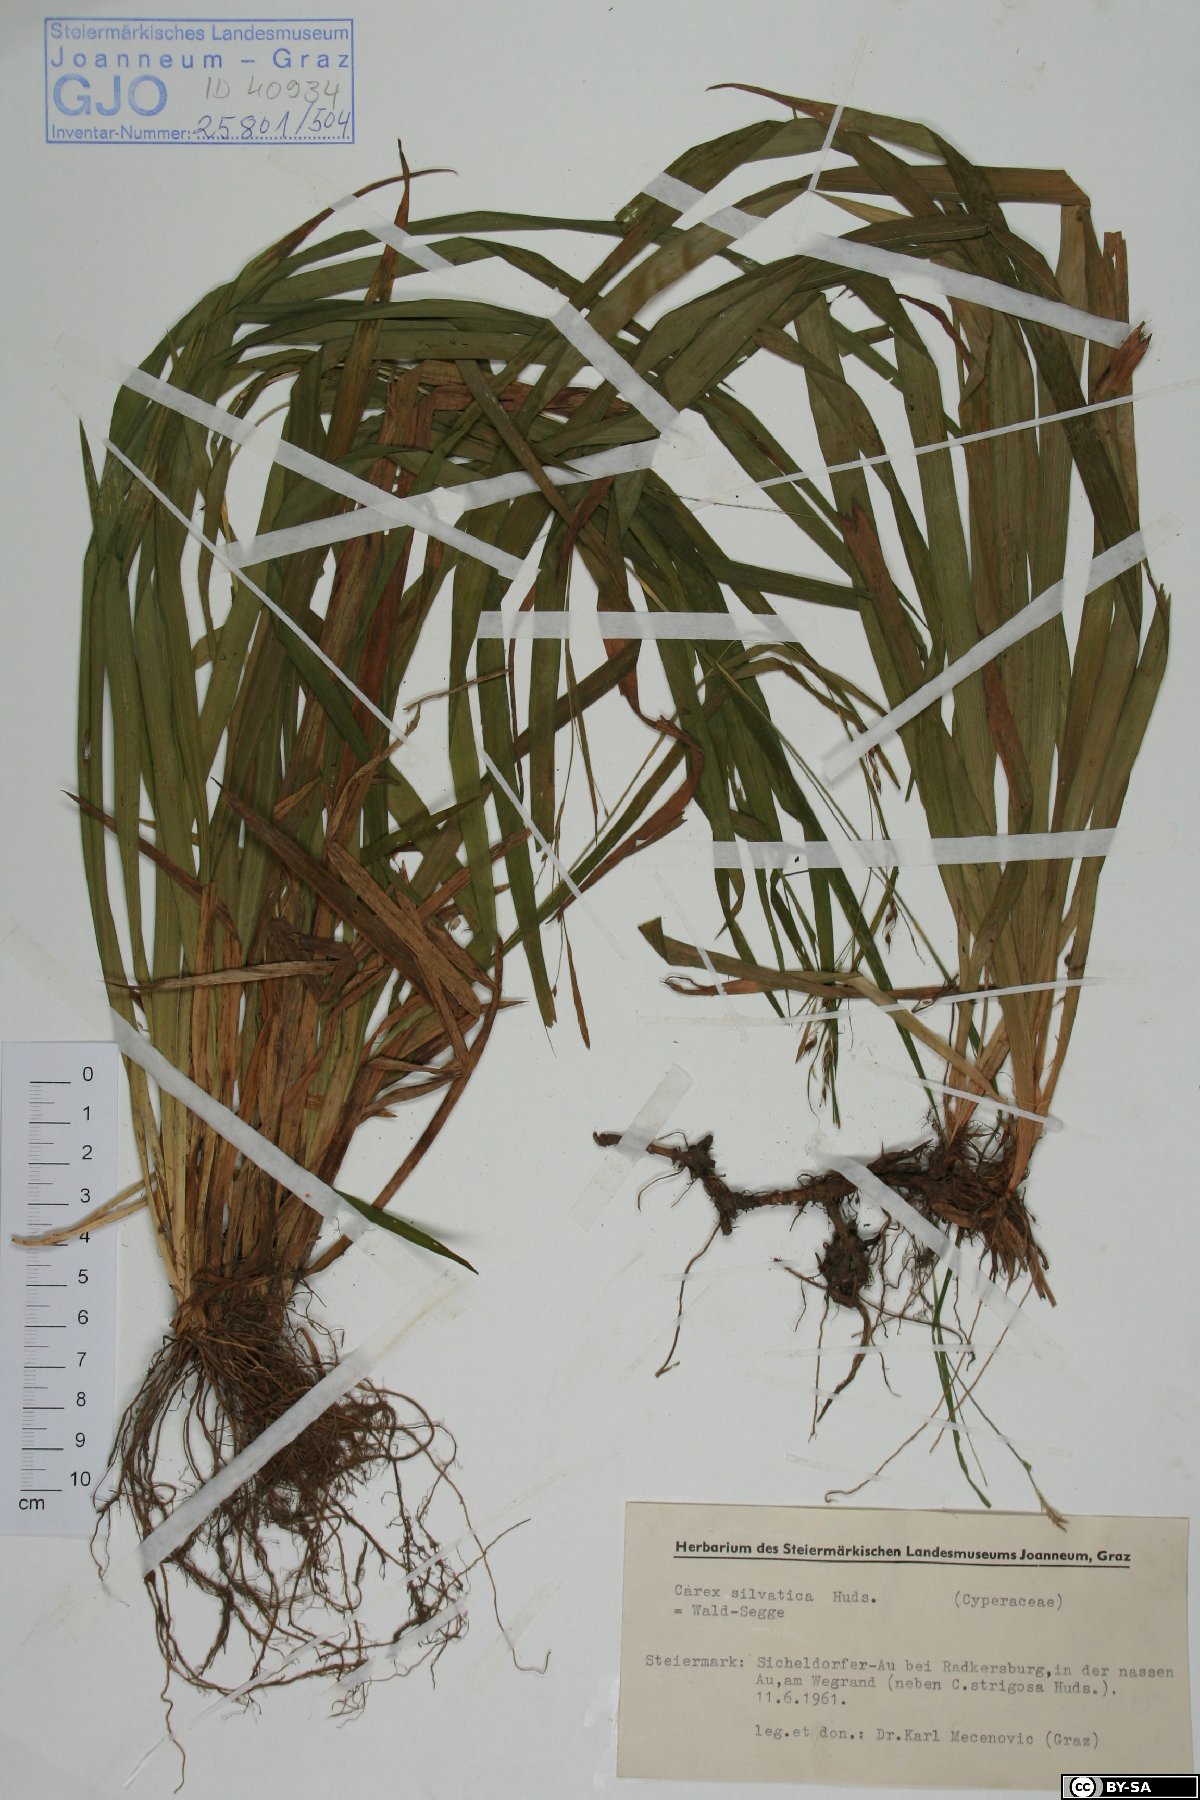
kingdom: Plantae
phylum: Tracheophyta
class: Liliopsida
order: Poales
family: Cyperaceae
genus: Carex
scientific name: Carex sylvatica
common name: Wood-sedge
